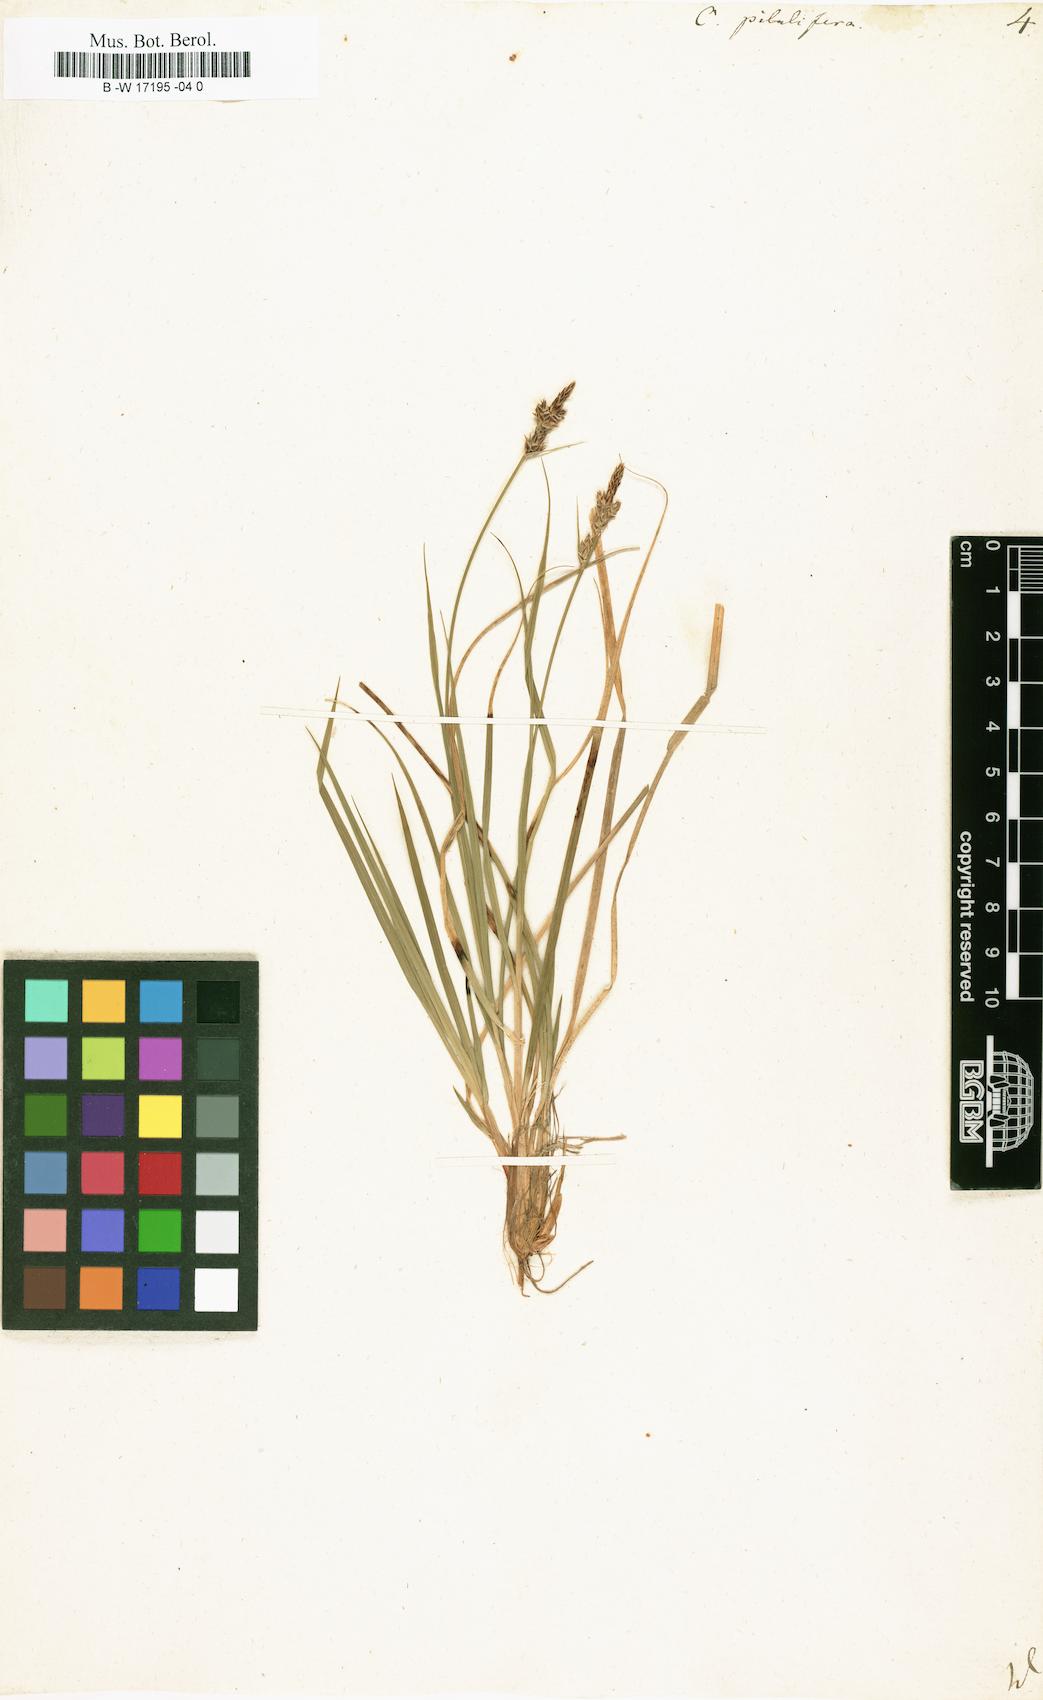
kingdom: Plantae
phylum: Tracheophyta
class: Liliopsida
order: Poales
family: Cyperaceae
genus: Carex
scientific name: Carex pilulifera
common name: Pill sedge
